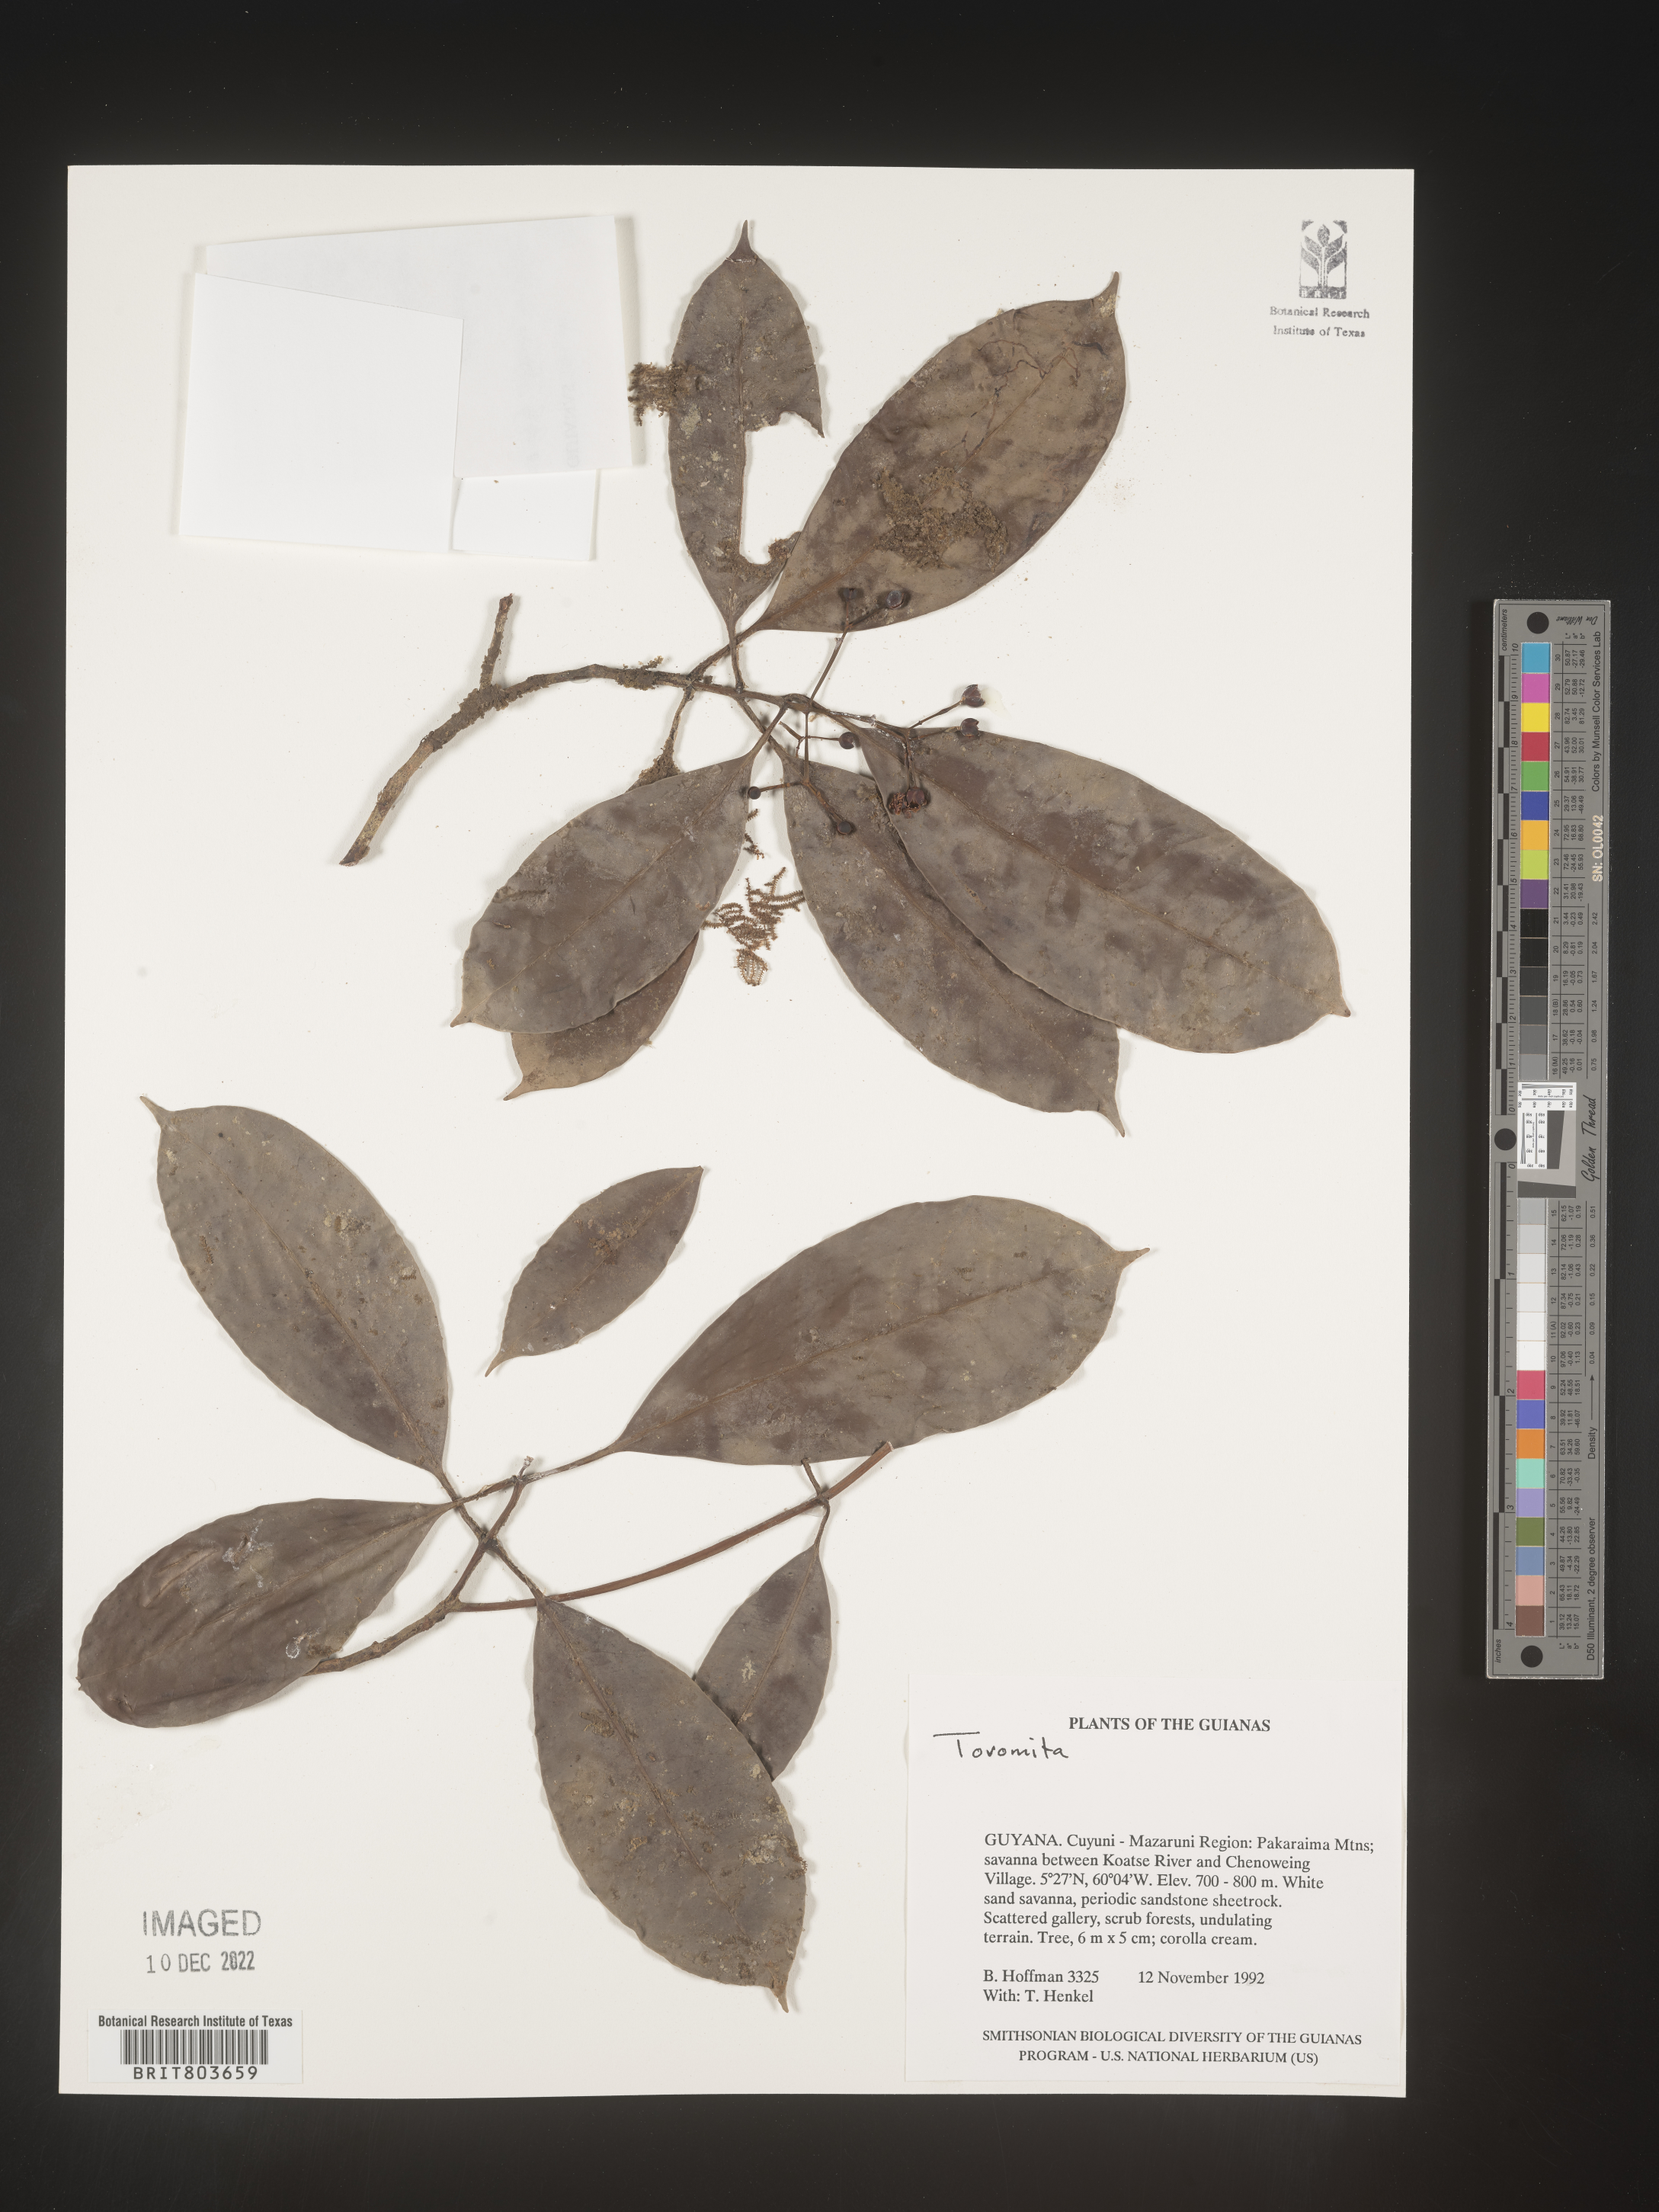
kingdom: Plantae
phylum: Tracheophyta
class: Magnoliopsida
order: Malpighiales
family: Clusiaceae
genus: Tovomita
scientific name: Tovomita
